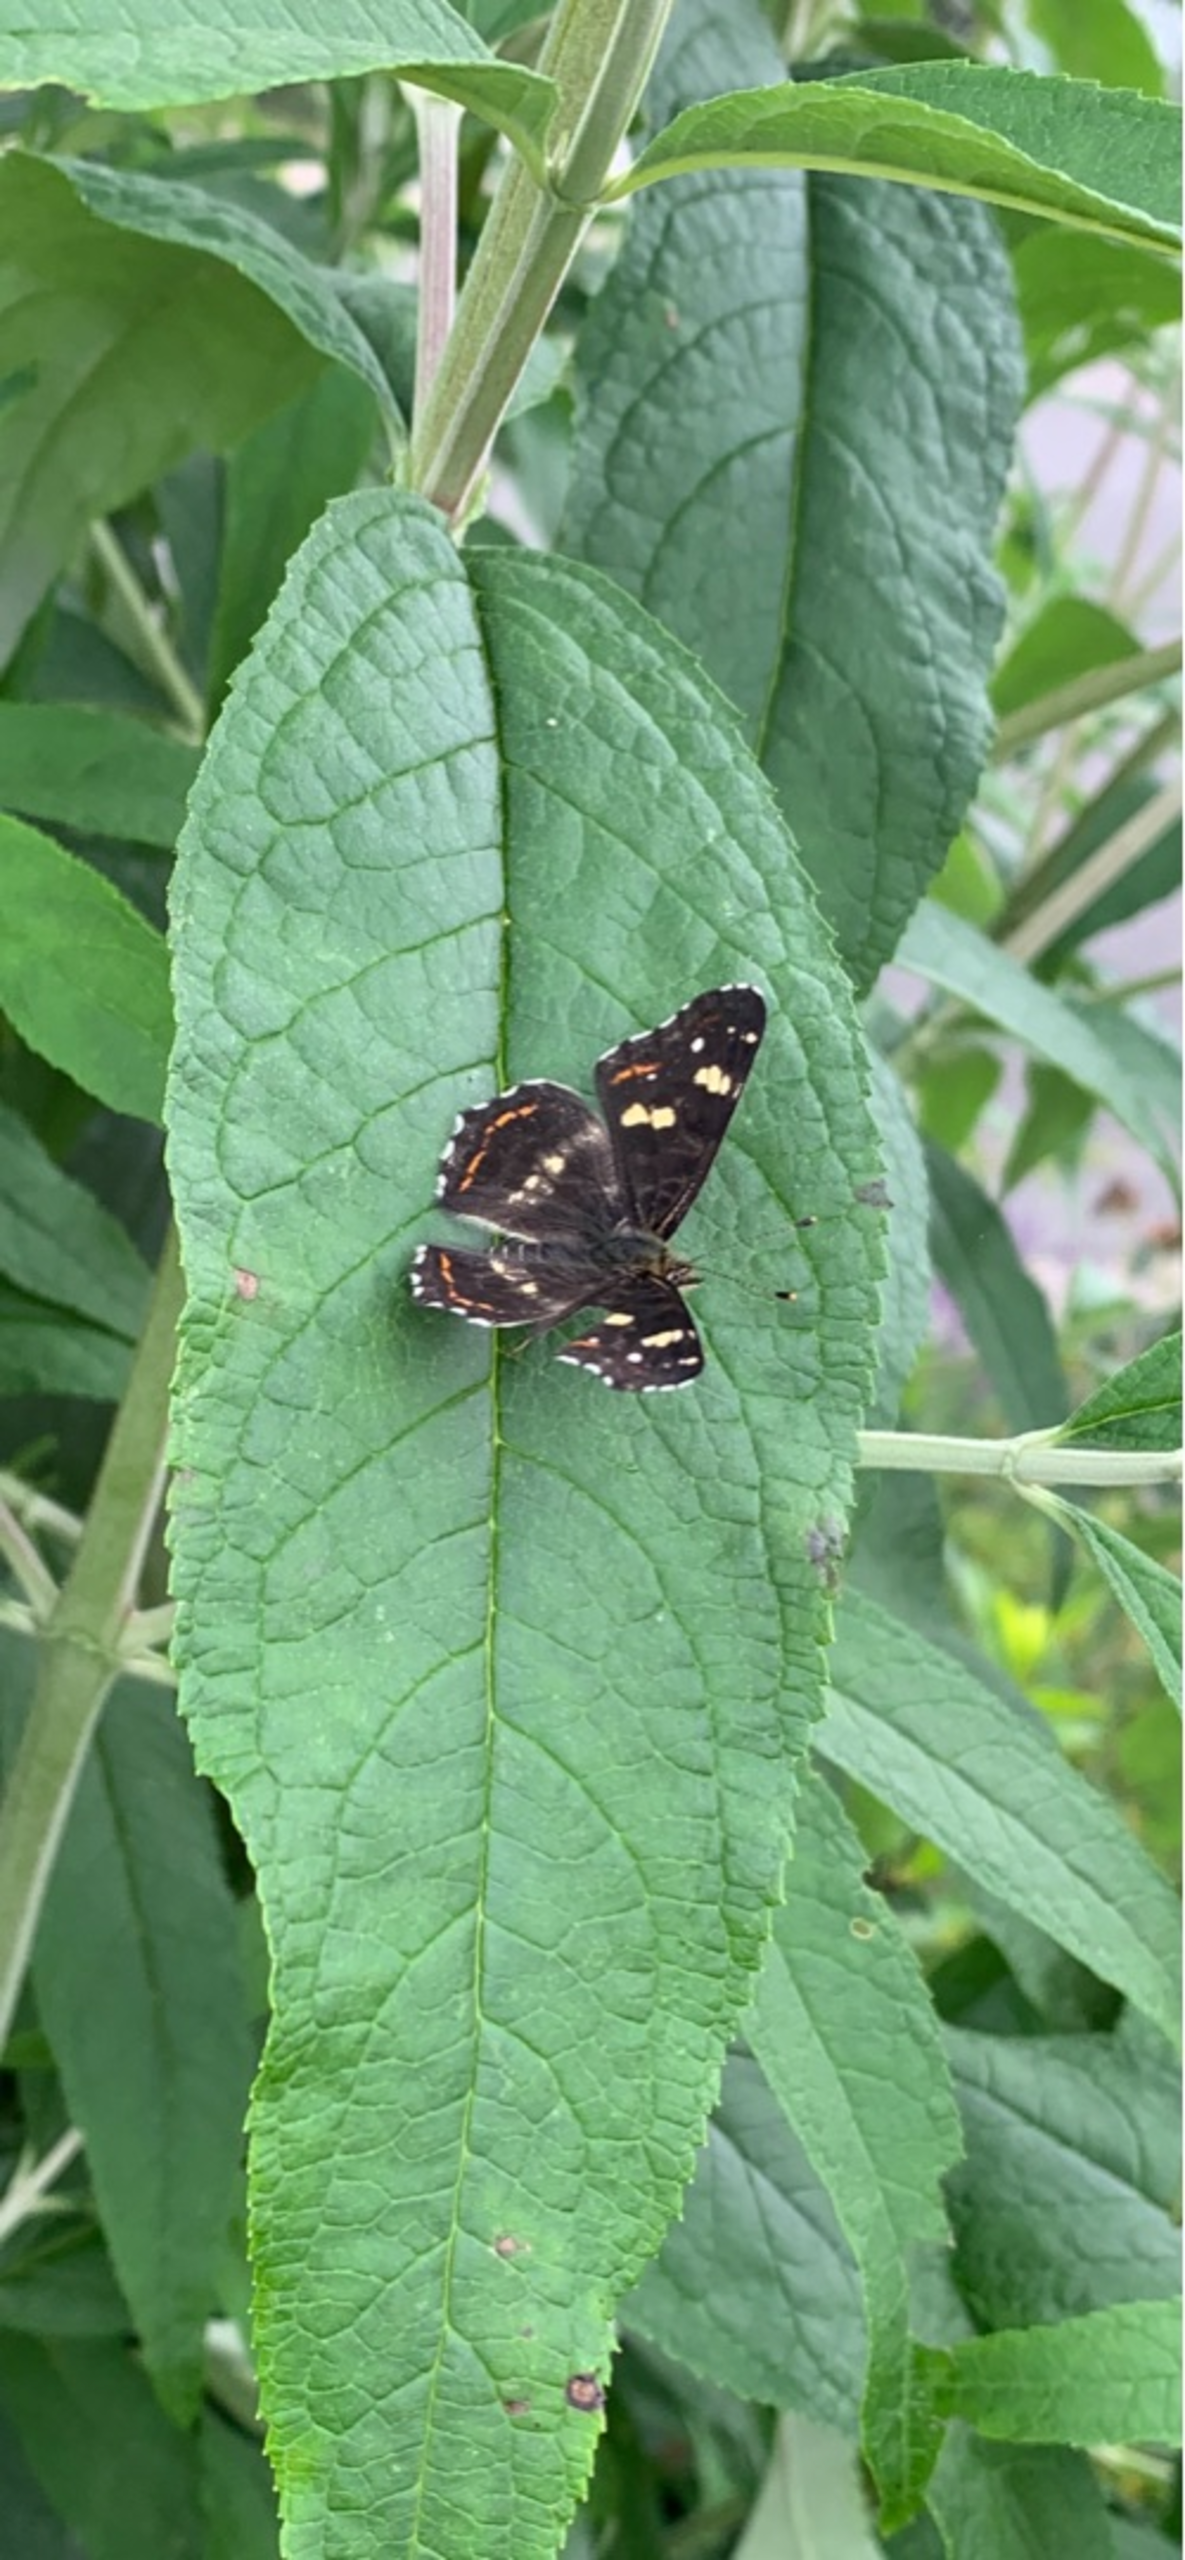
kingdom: Animalia
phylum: Arthropoda
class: Insecta
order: Lepidoptera
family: Nymphalidae
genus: Araschnia
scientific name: Araschnia levana
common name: Nældesommerfugl
